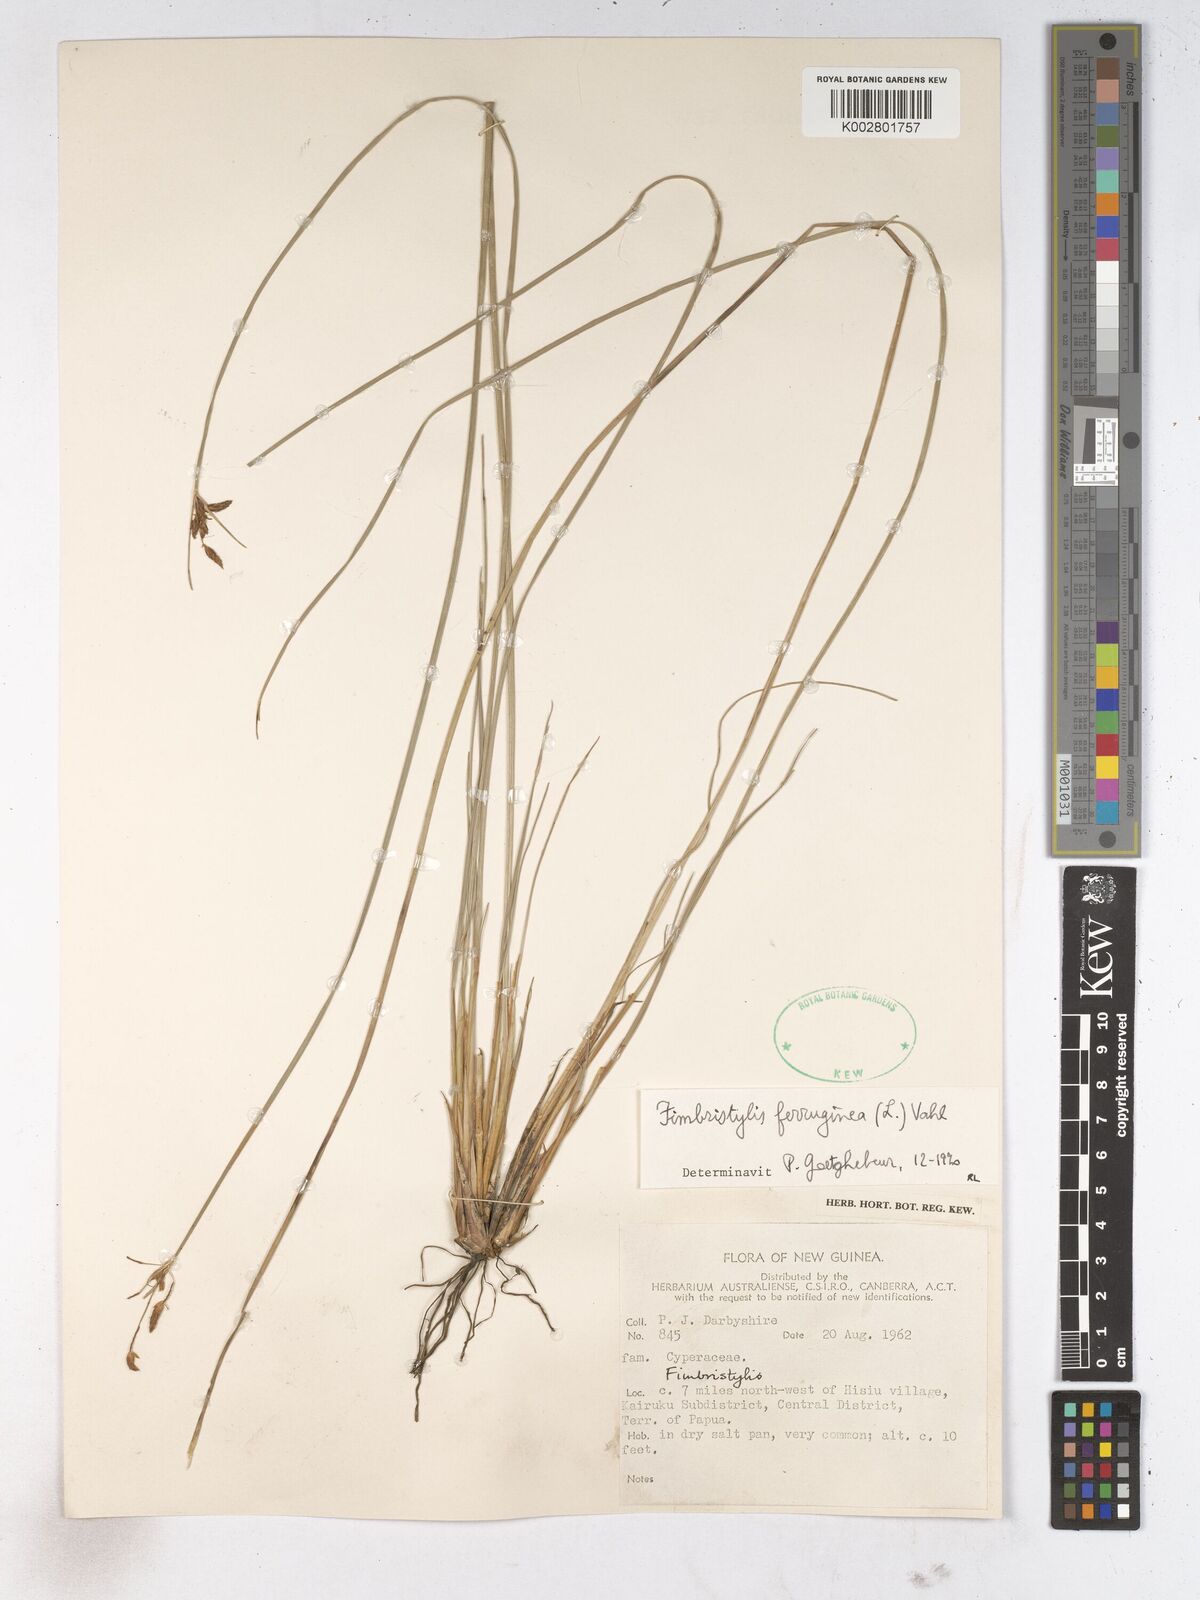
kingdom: Plantae
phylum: Tracheophyta
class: Liliopsida
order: Poales
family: Cyperaceae
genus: Fimbristylis
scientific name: Fimbristylis ferruginea
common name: West indian fimbry
